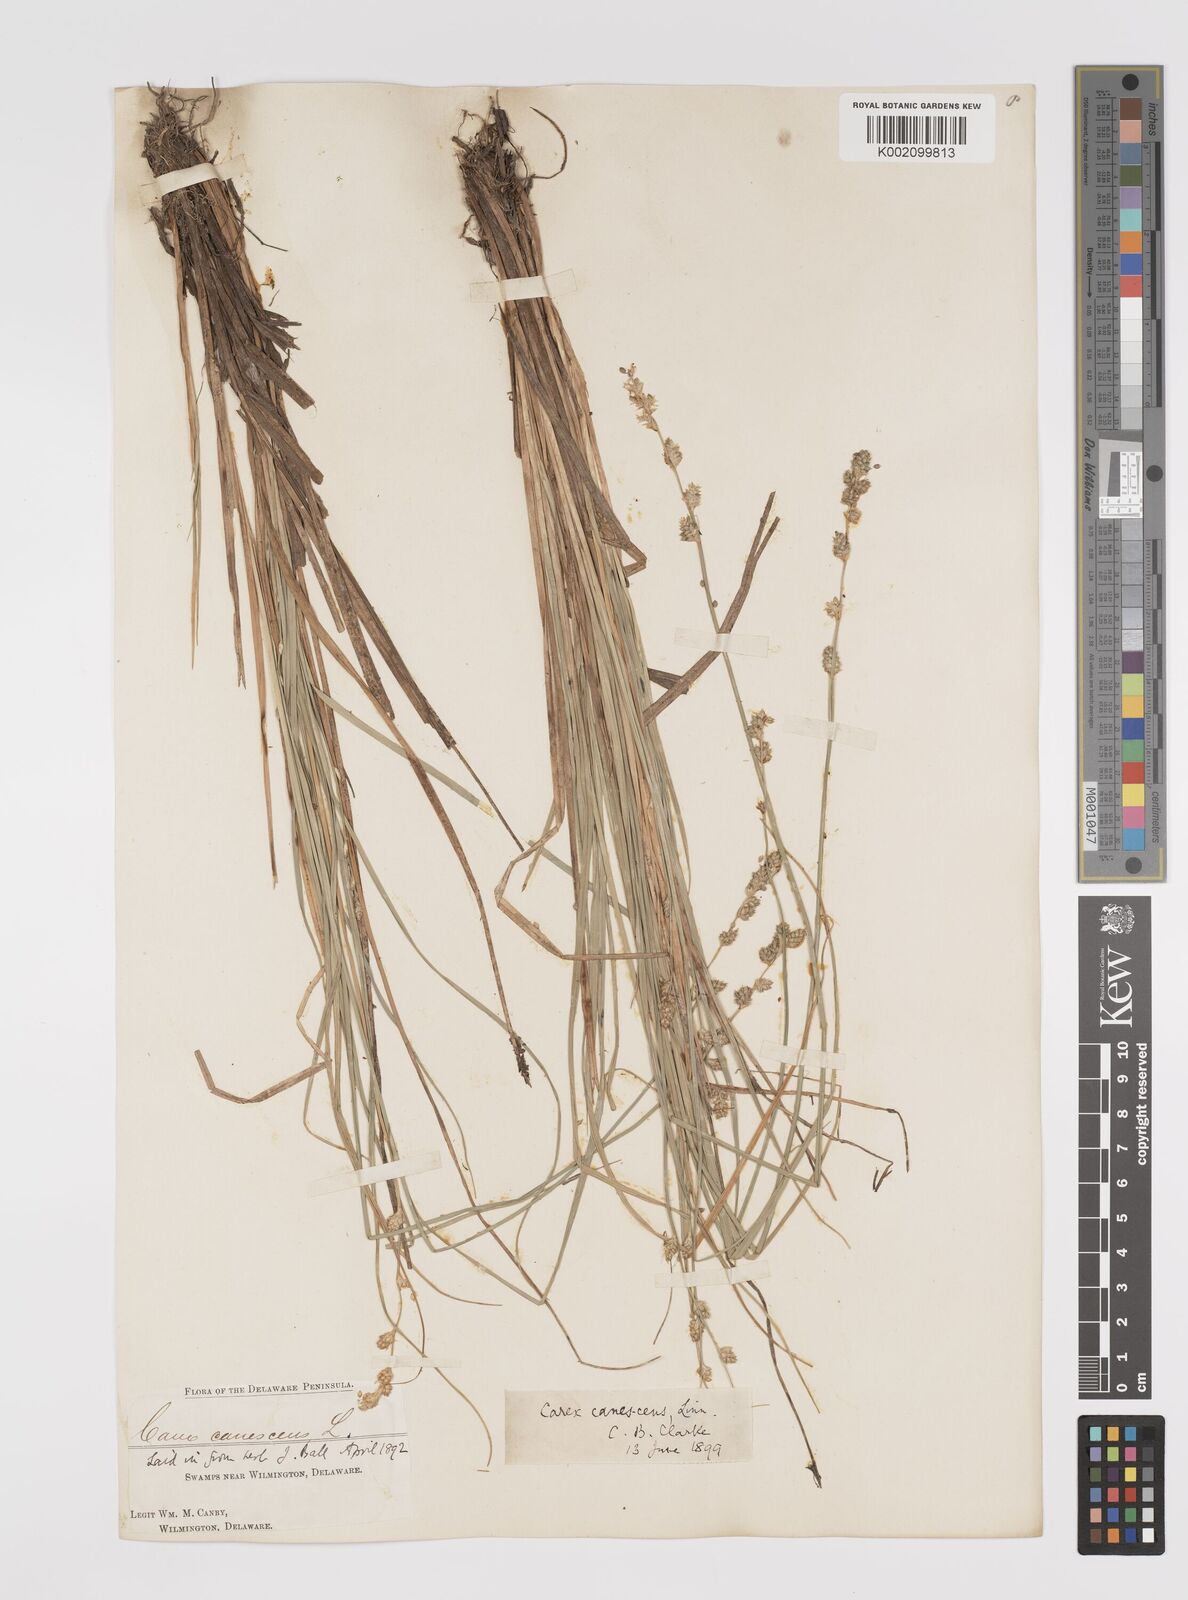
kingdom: Plantae
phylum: Tracheophyta
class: Liliopsida
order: Poales
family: Cyperaceae
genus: Carex
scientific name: Carex curta
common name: White sedge
